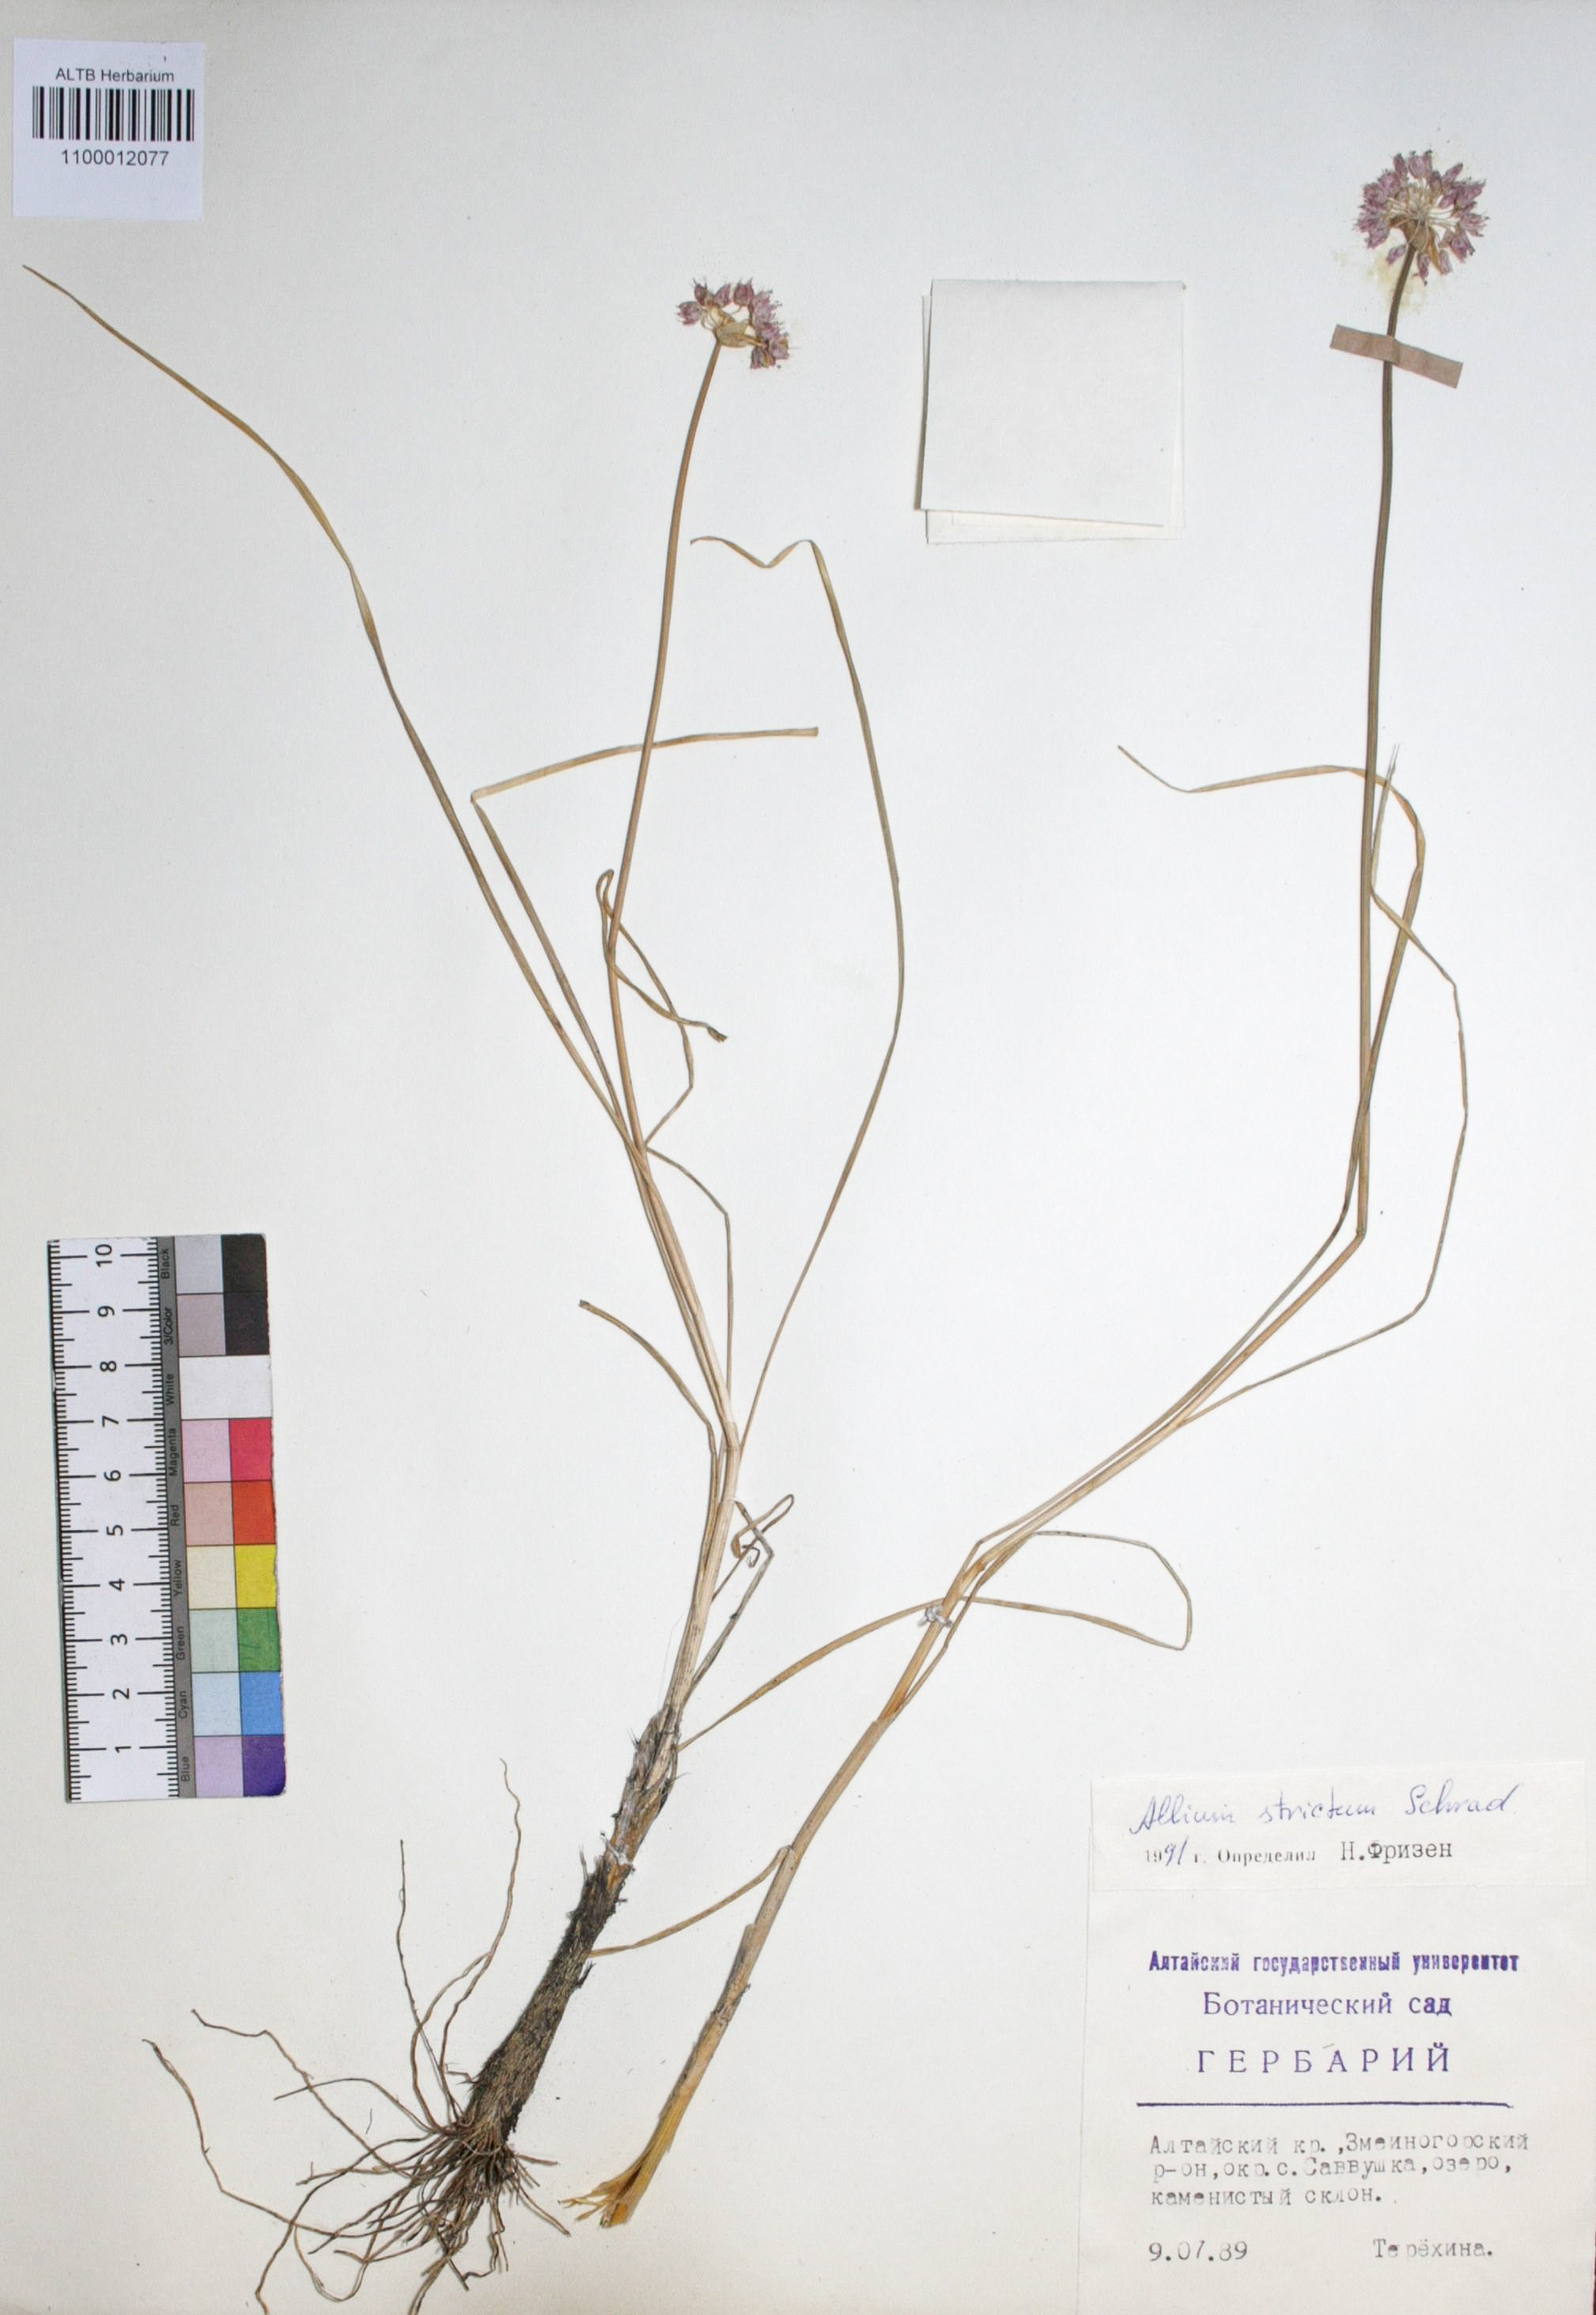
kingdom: Plantae
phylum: Tracheophyta
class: Liliopsida
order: Asparagales
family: Amaryllidaceae
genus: Allium
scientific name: Allium strictum
